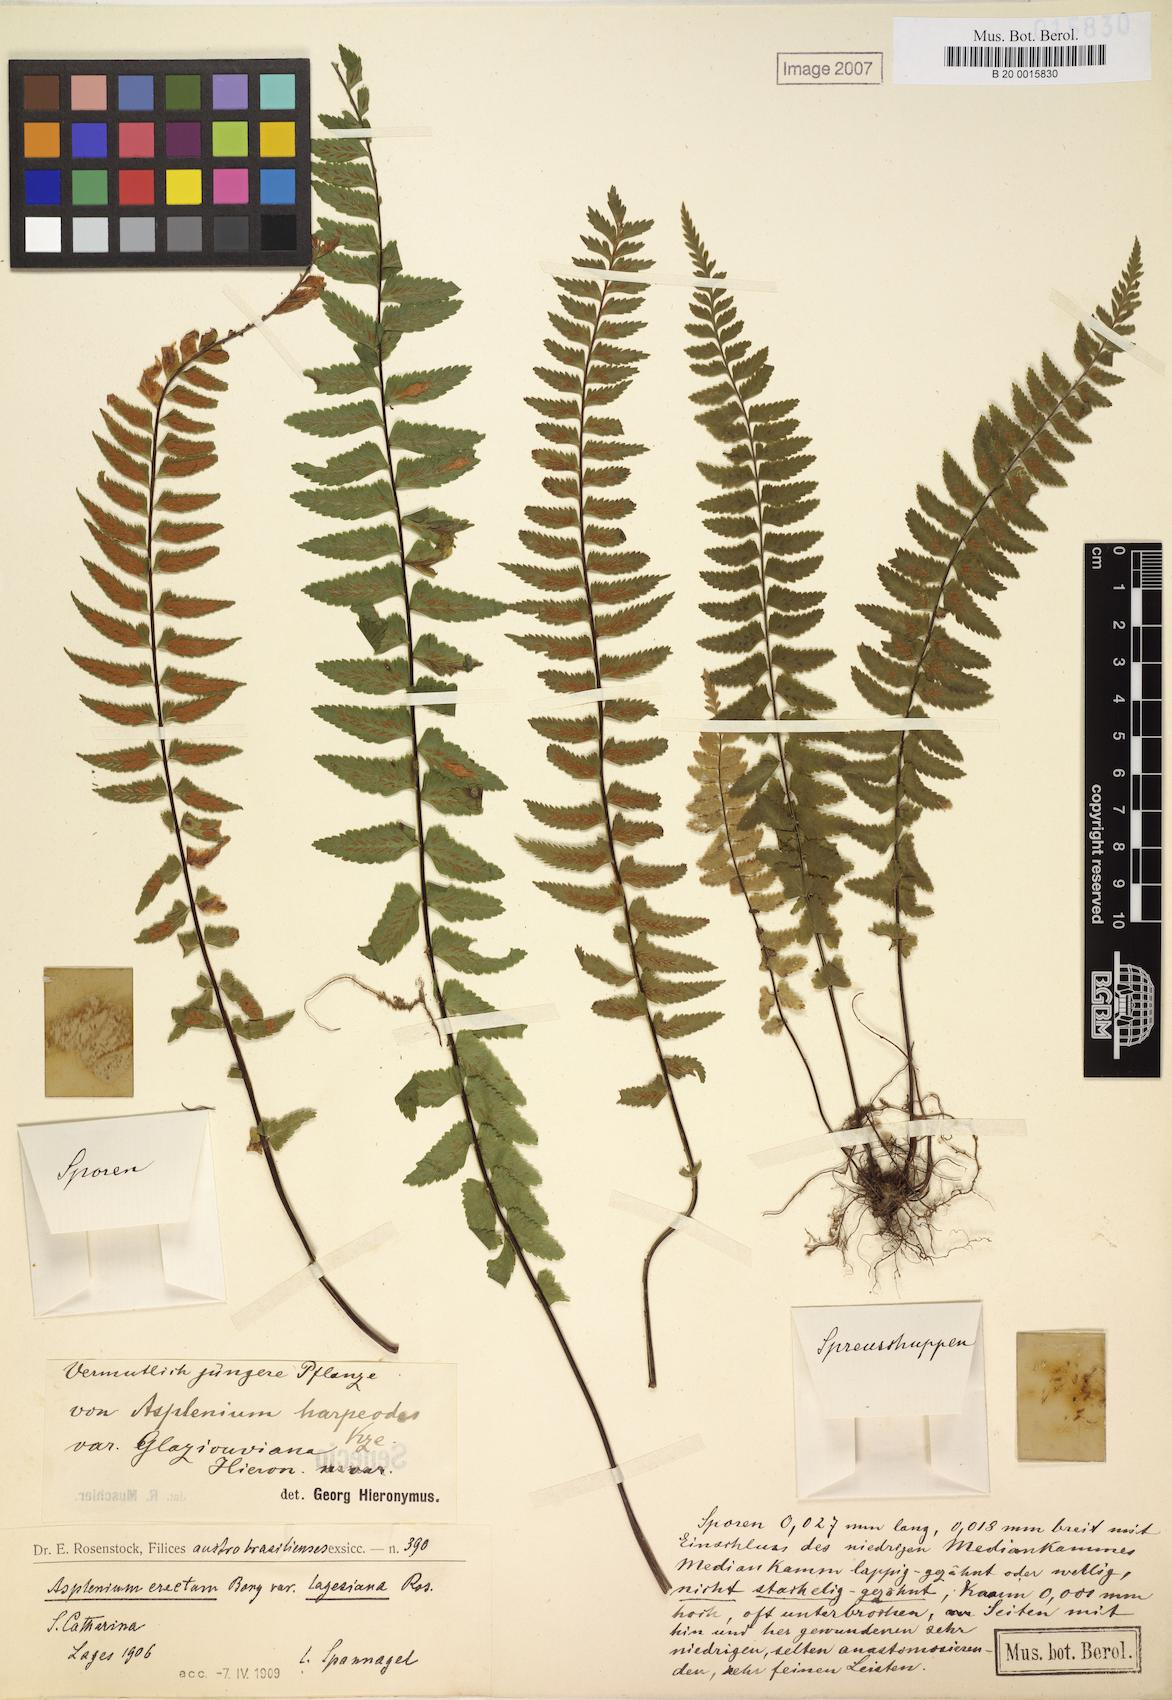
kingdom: Plantae
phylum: Tracheophyta
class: Polypodiopsida
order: Polypodiales
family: Aspleniaceae
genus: Asplenium
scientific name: Asplenium harpeodes
